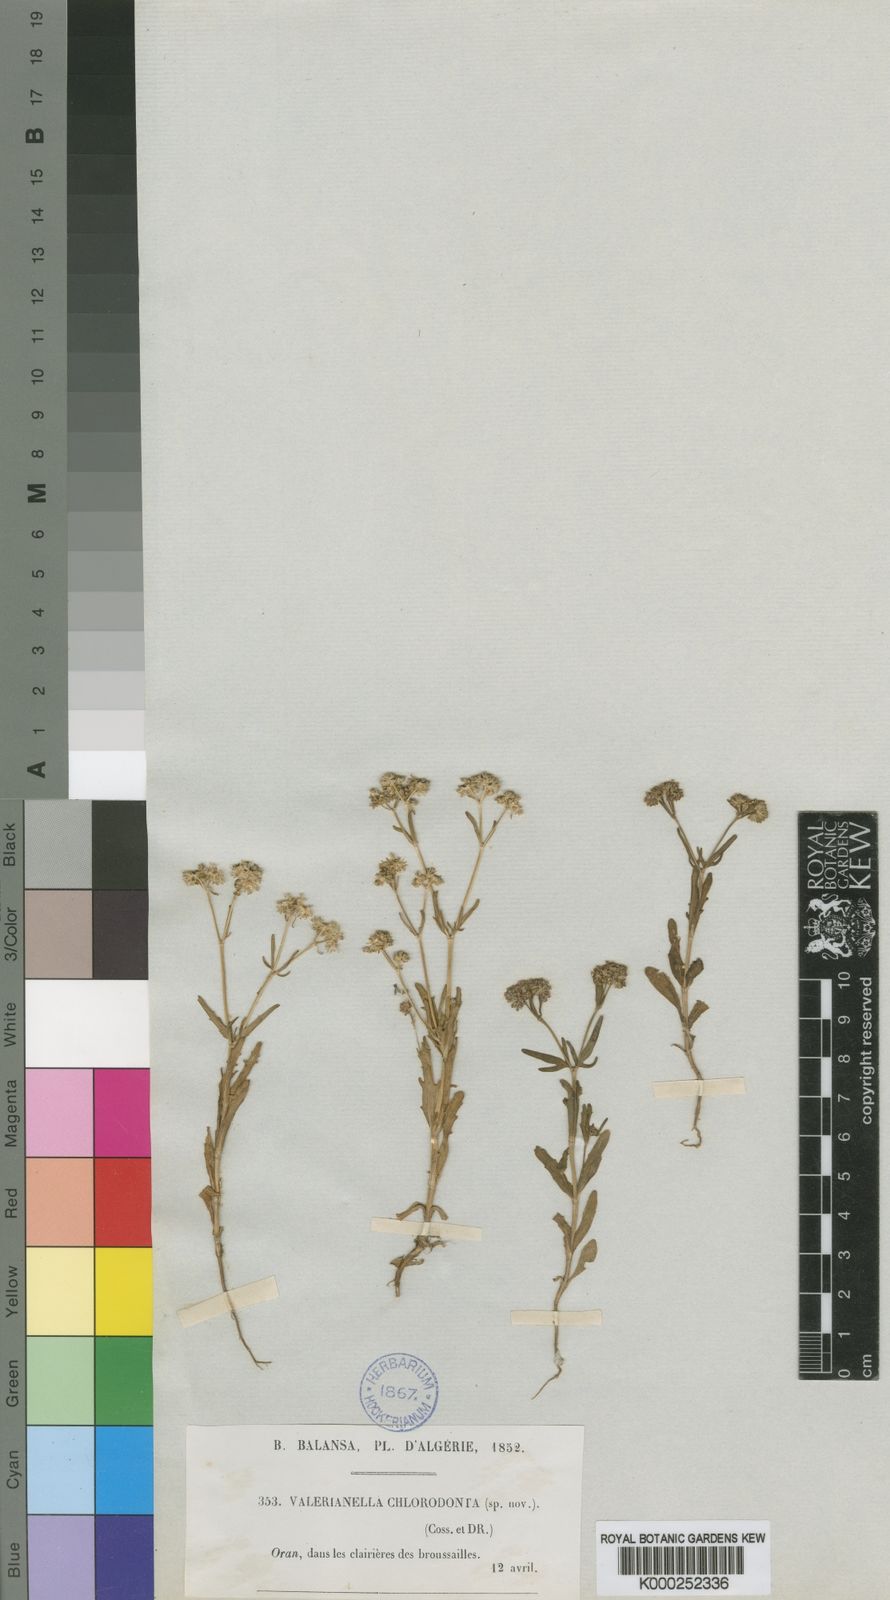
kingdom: Plantae
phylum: Tracheophyta
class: Magnoliopsida
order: Dipsacales
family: Caprifoliaceae
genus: Valerianella
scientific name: Valerianella chlorodonta
